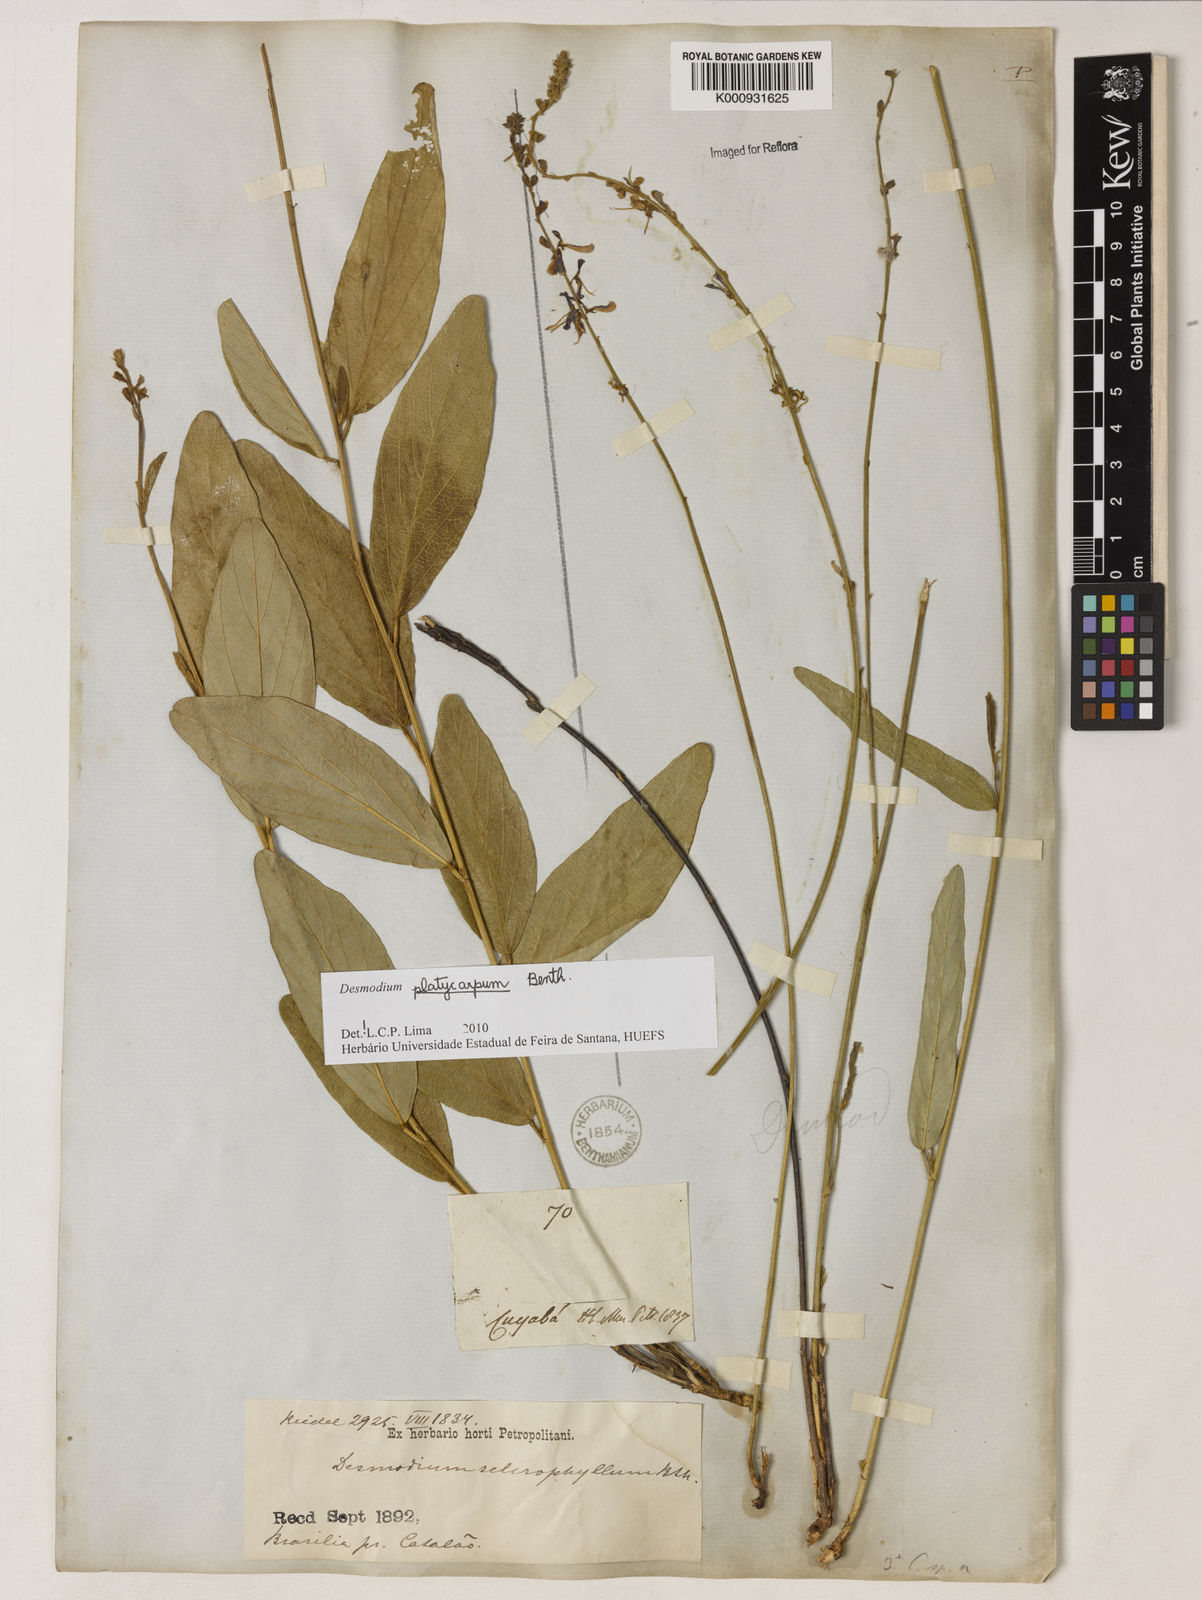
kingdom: Plantae
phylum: Tracheophyta
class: Magnoliopsida
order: Fabales
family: Fabaceae
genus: Desmodium
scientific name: Desmodium platycarpum
